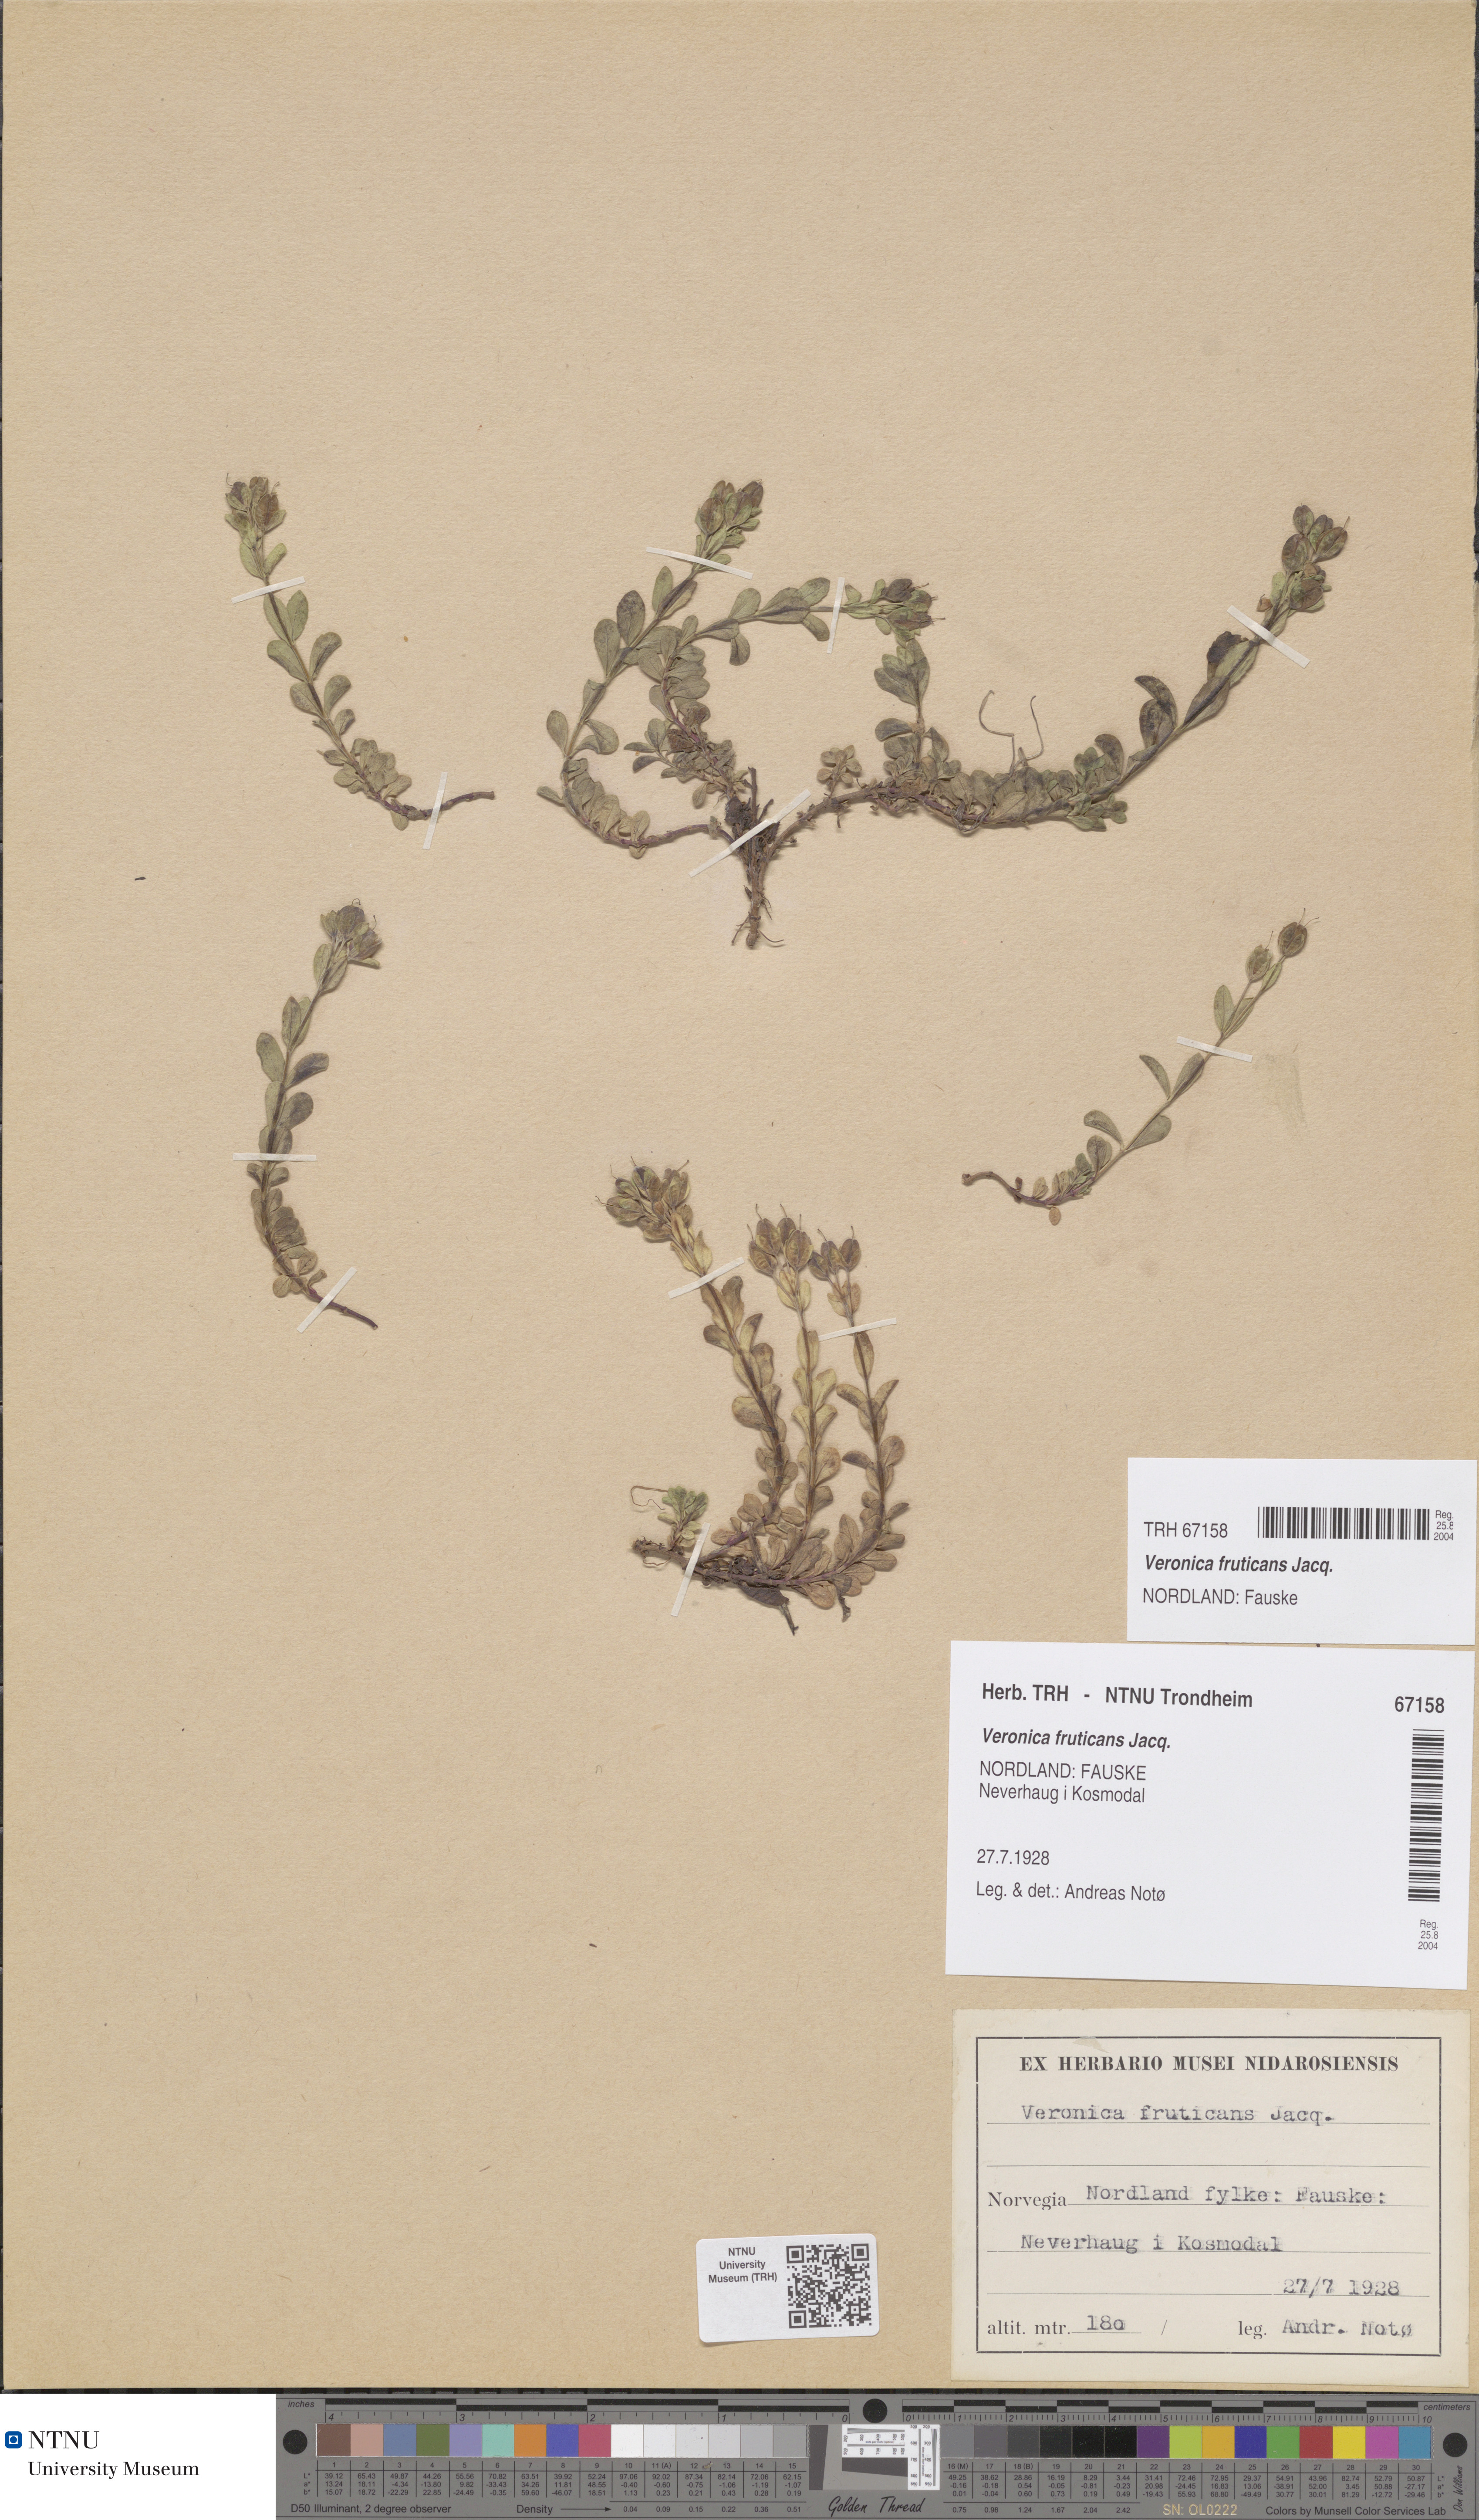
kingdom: Plantae
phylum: Tracheophyta
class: Magnoliopsida
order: Lamiales
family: Plantaginaceae
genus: Veronica
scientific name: Veronica fruticans
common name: Rock speedwell
